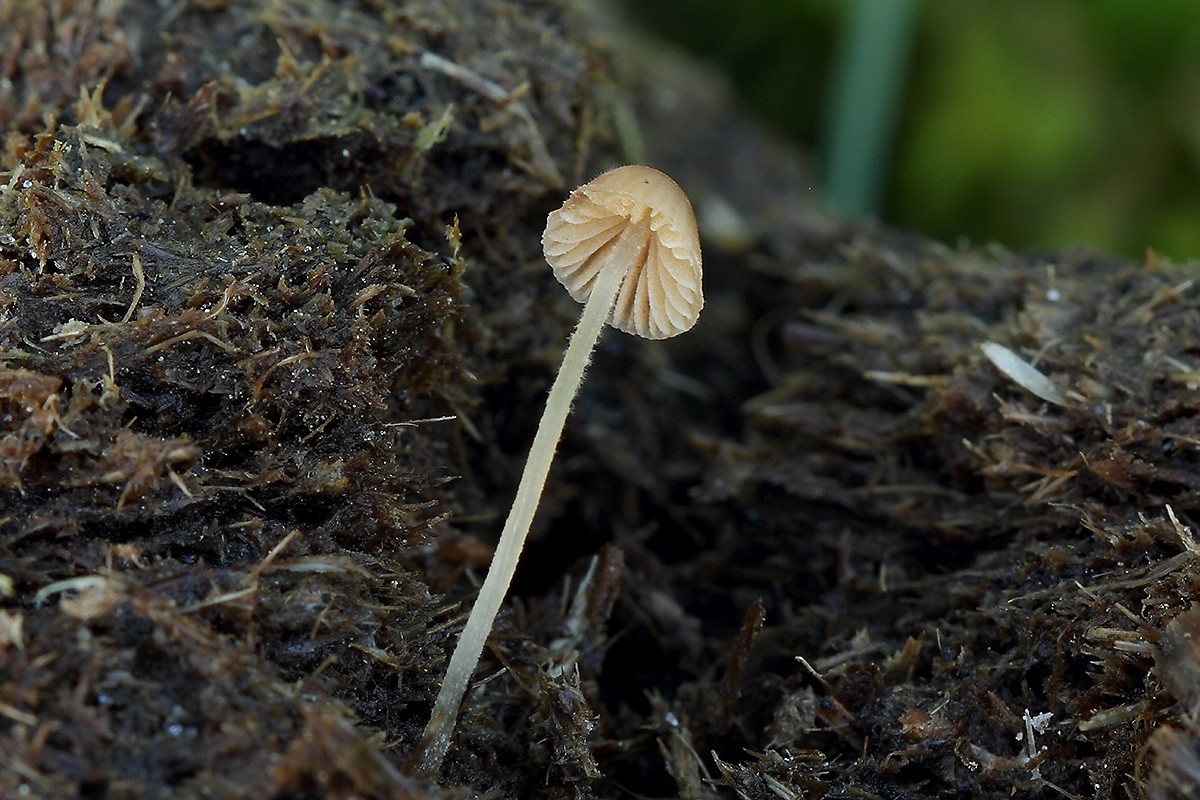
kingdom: Fungi
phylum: Basidiomycota
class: Agaricomycetes
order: Agaricales
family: Bolbitiaceae
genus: Conocybe
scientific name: Conocybe fimetaria
